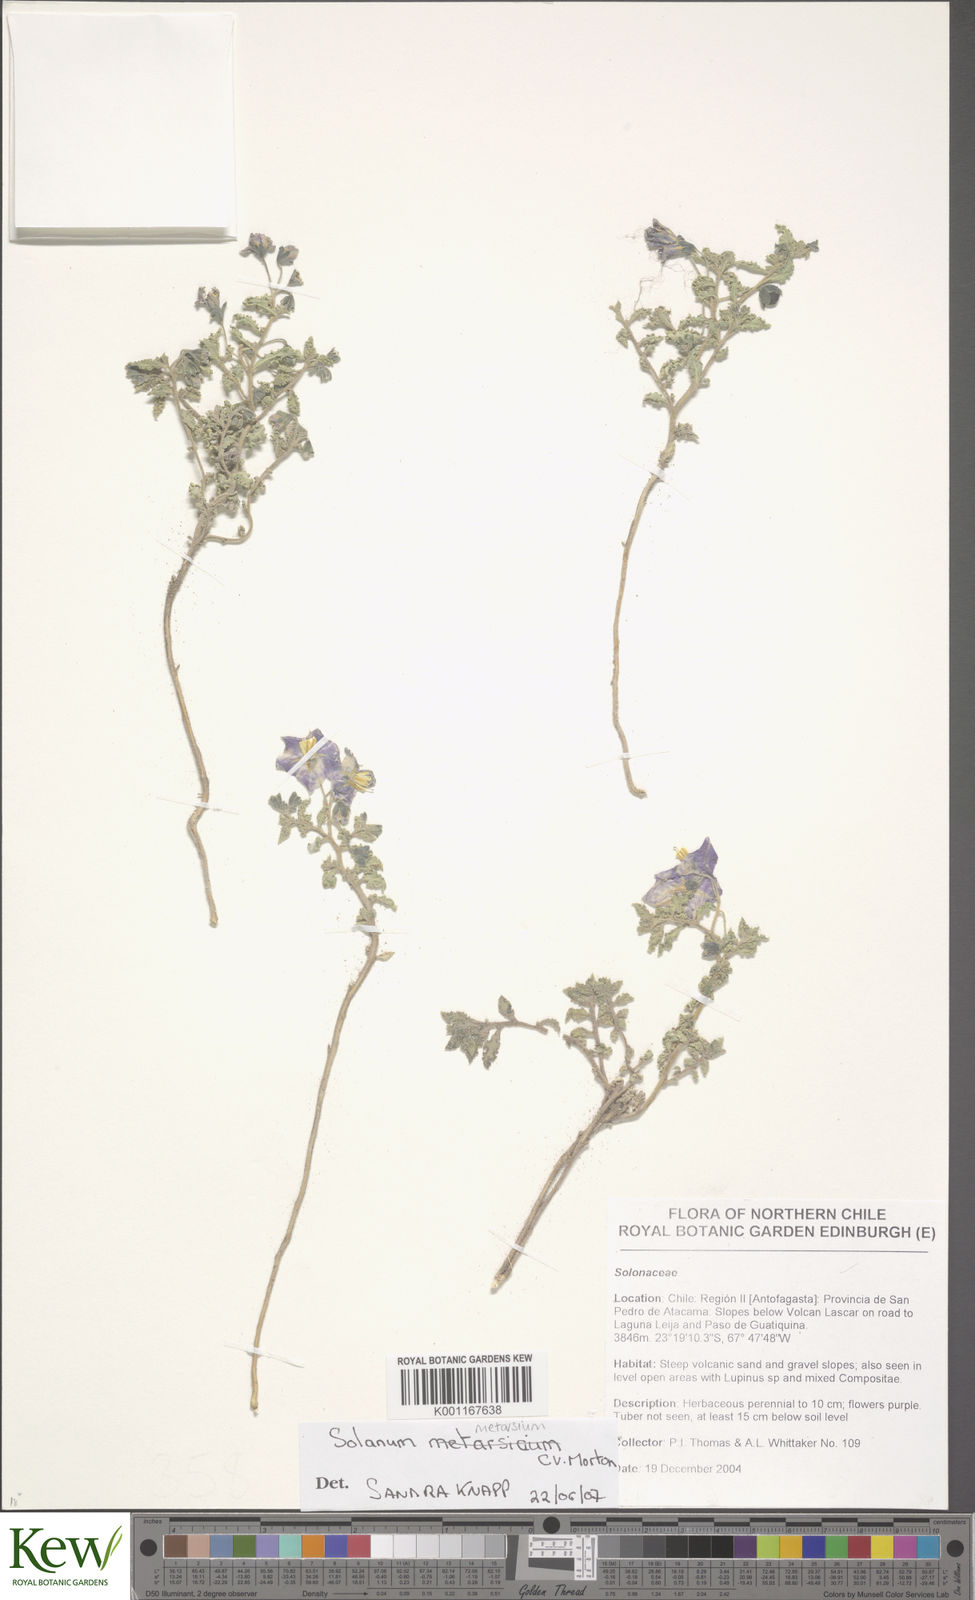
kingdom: Plantae
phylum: Tracheophyta
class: Magnoliopsida
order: Solanales
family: Solanaceae
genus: Solanum
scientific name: Solanum sinuatirecurvum
